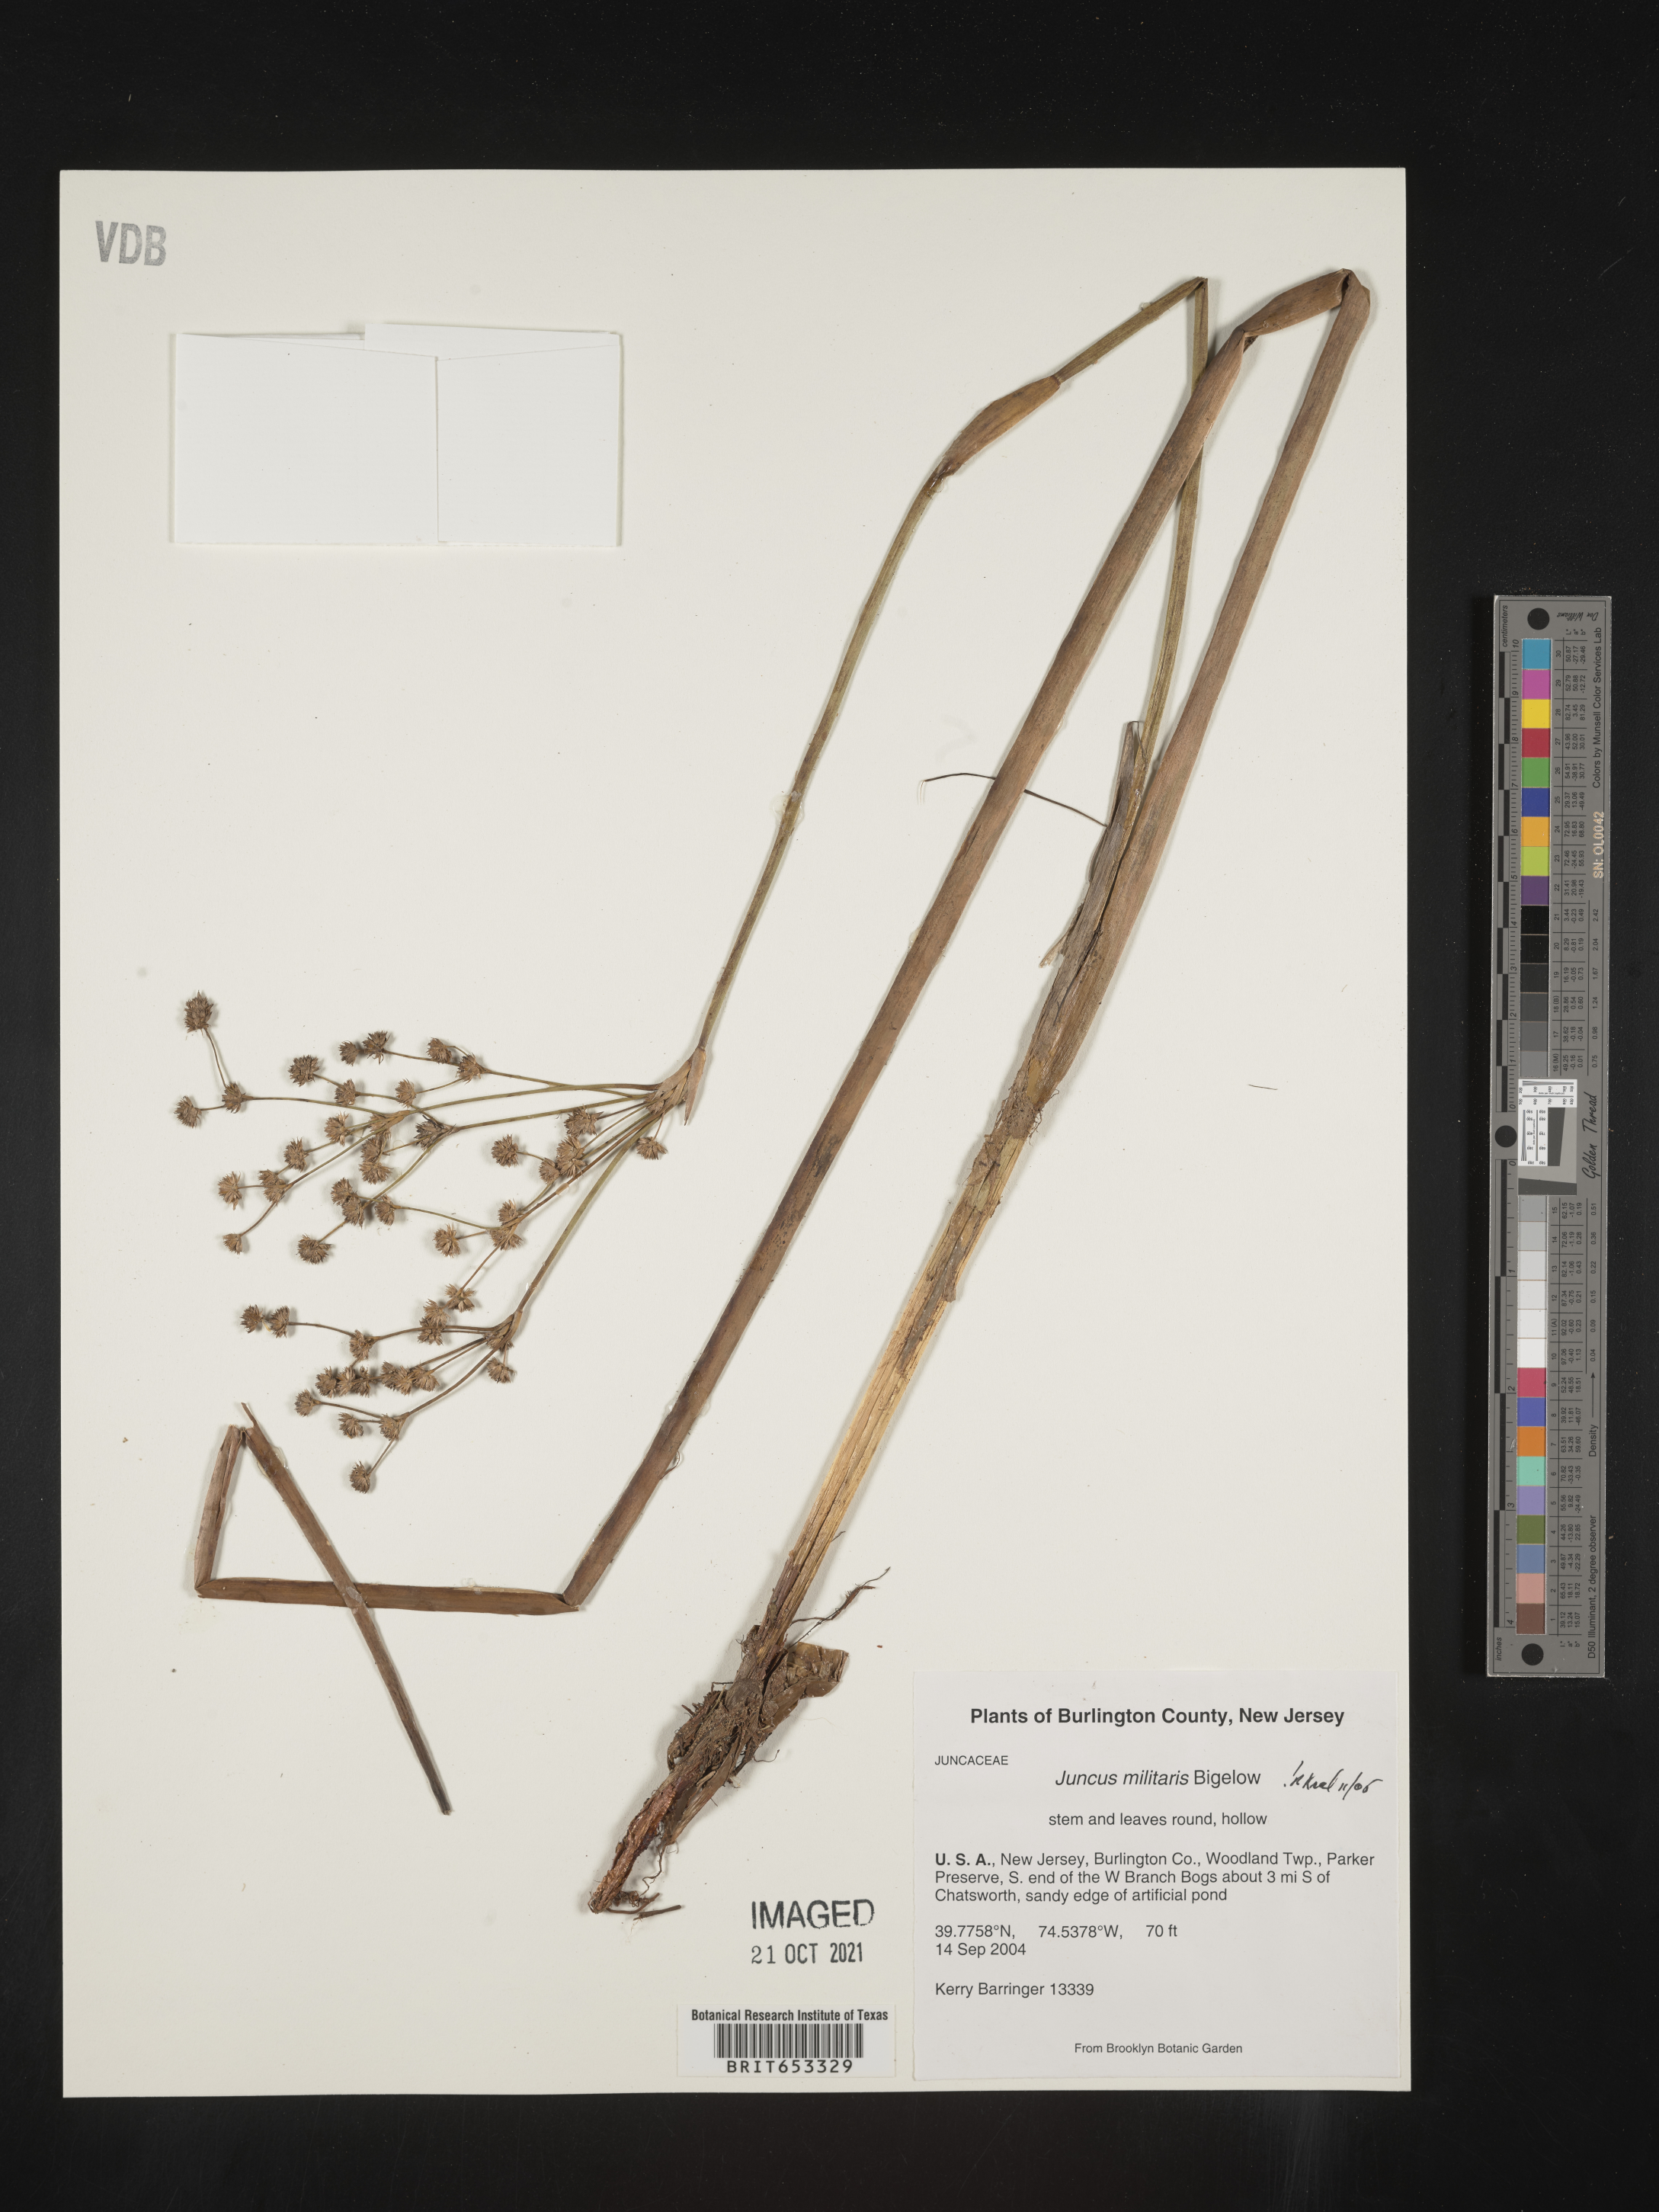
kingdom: Plantae
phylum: Tracheophyta
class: Liliopsida
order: Poales
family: Juncaceae
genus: Juncus
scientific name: Juncus militaris
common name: Bayonet rush
